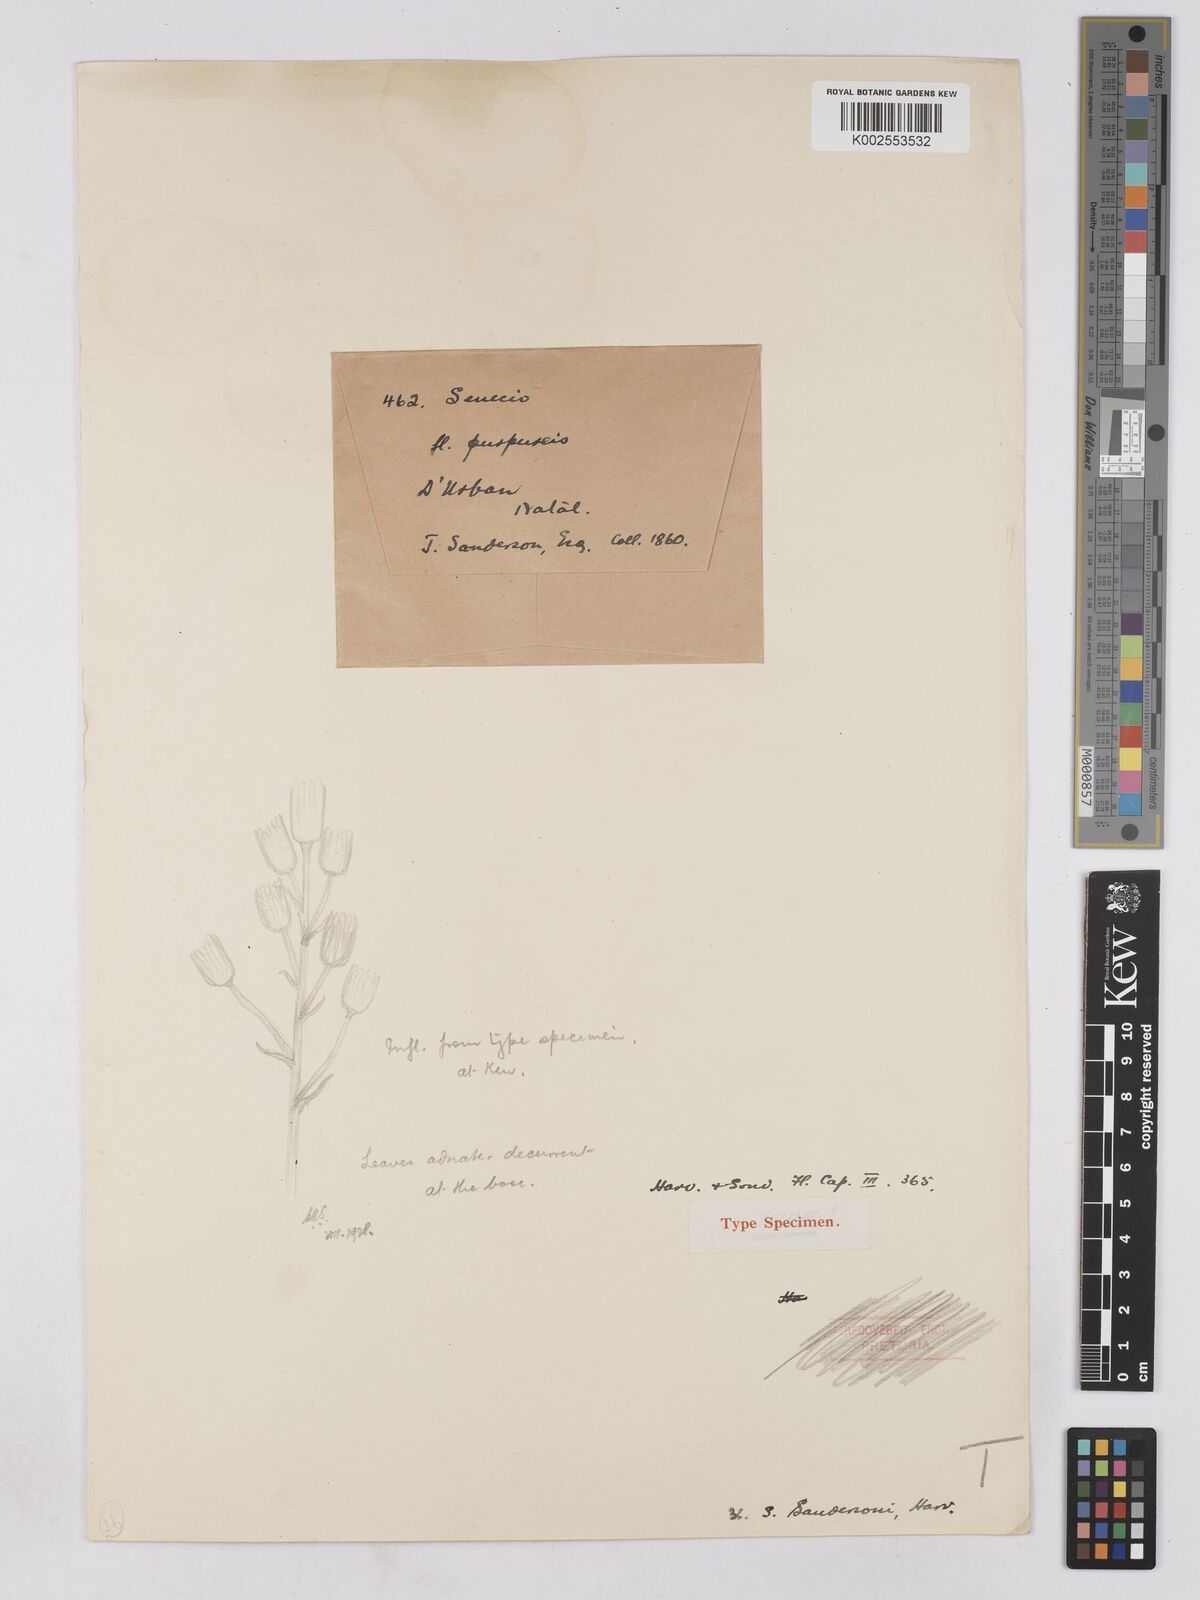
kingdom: Plantae
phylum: Tracheophyta
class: Magnoliopsida
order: Asterales
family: Asteraceae
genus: Senecio
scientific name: Senecio sandersonii
